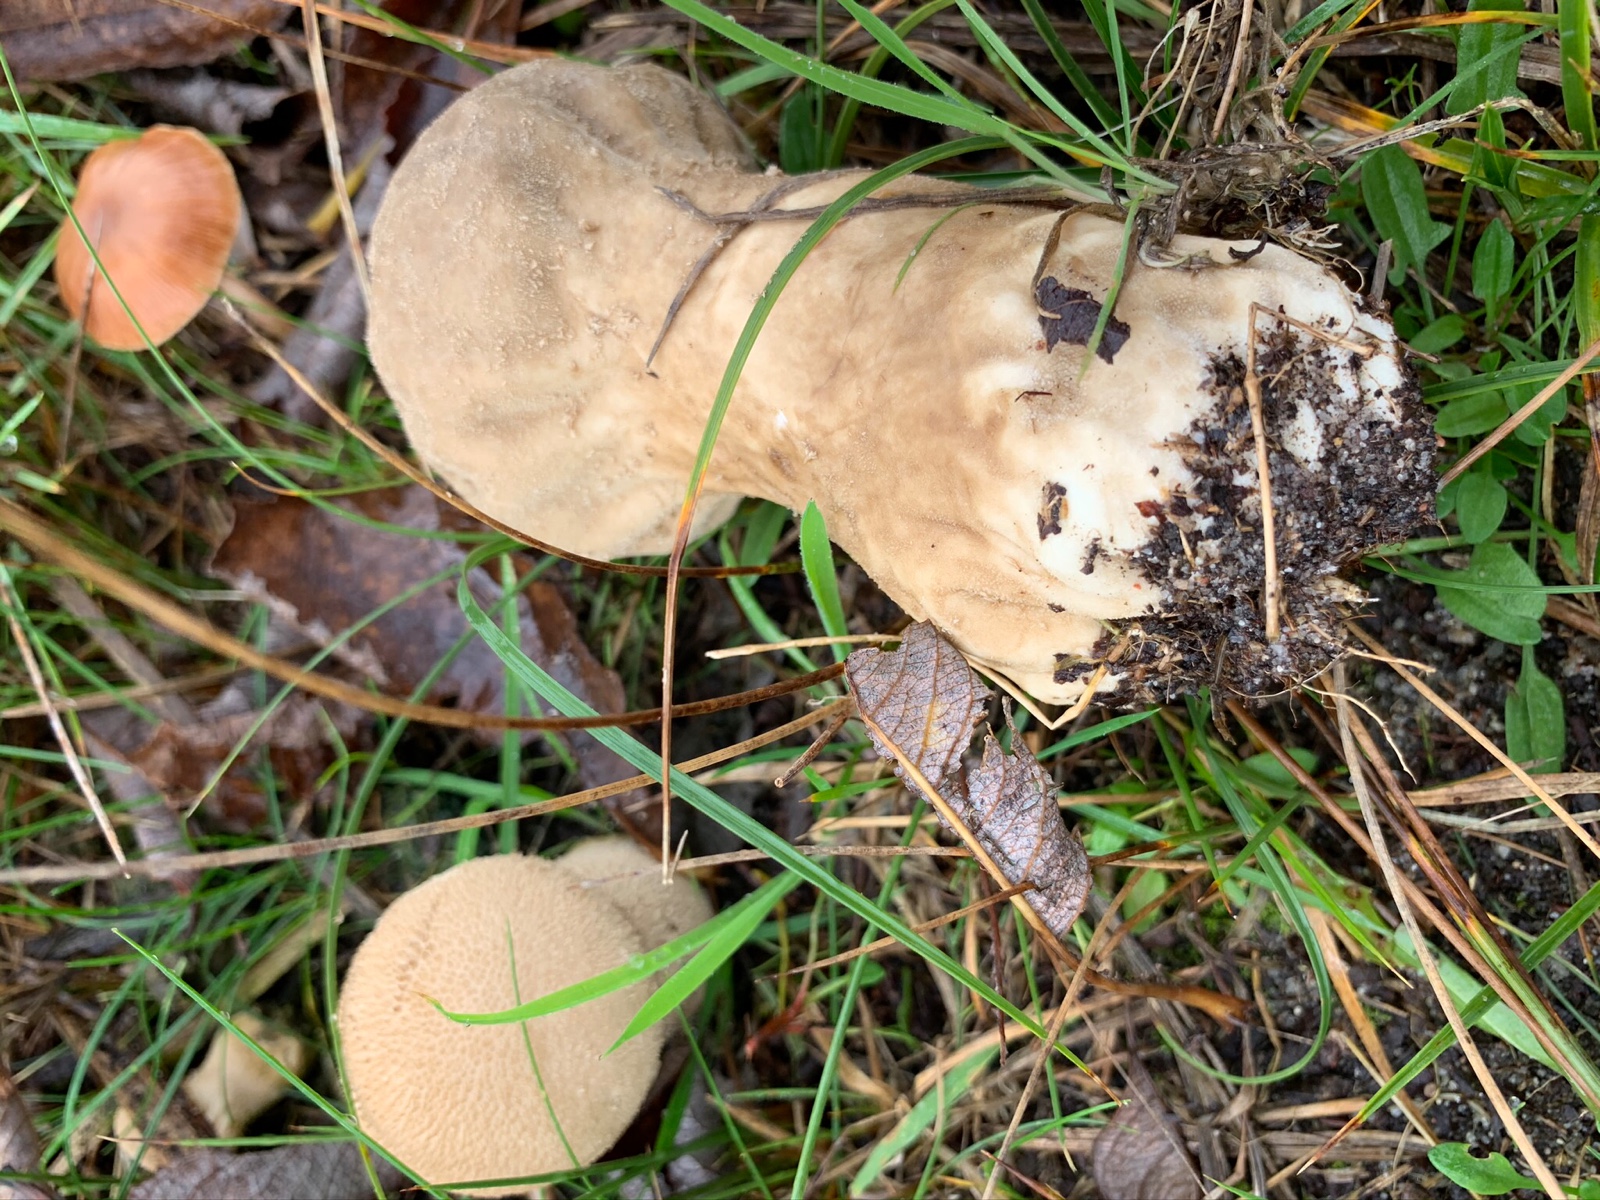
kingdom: Fungi
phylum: Basidiomycota
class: Agaricomycetes
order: Agaricales
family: Lycoperdaceae
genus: Lycoperdon
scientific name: Lycoperdon excipuliforme
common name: højstokket støvbold
